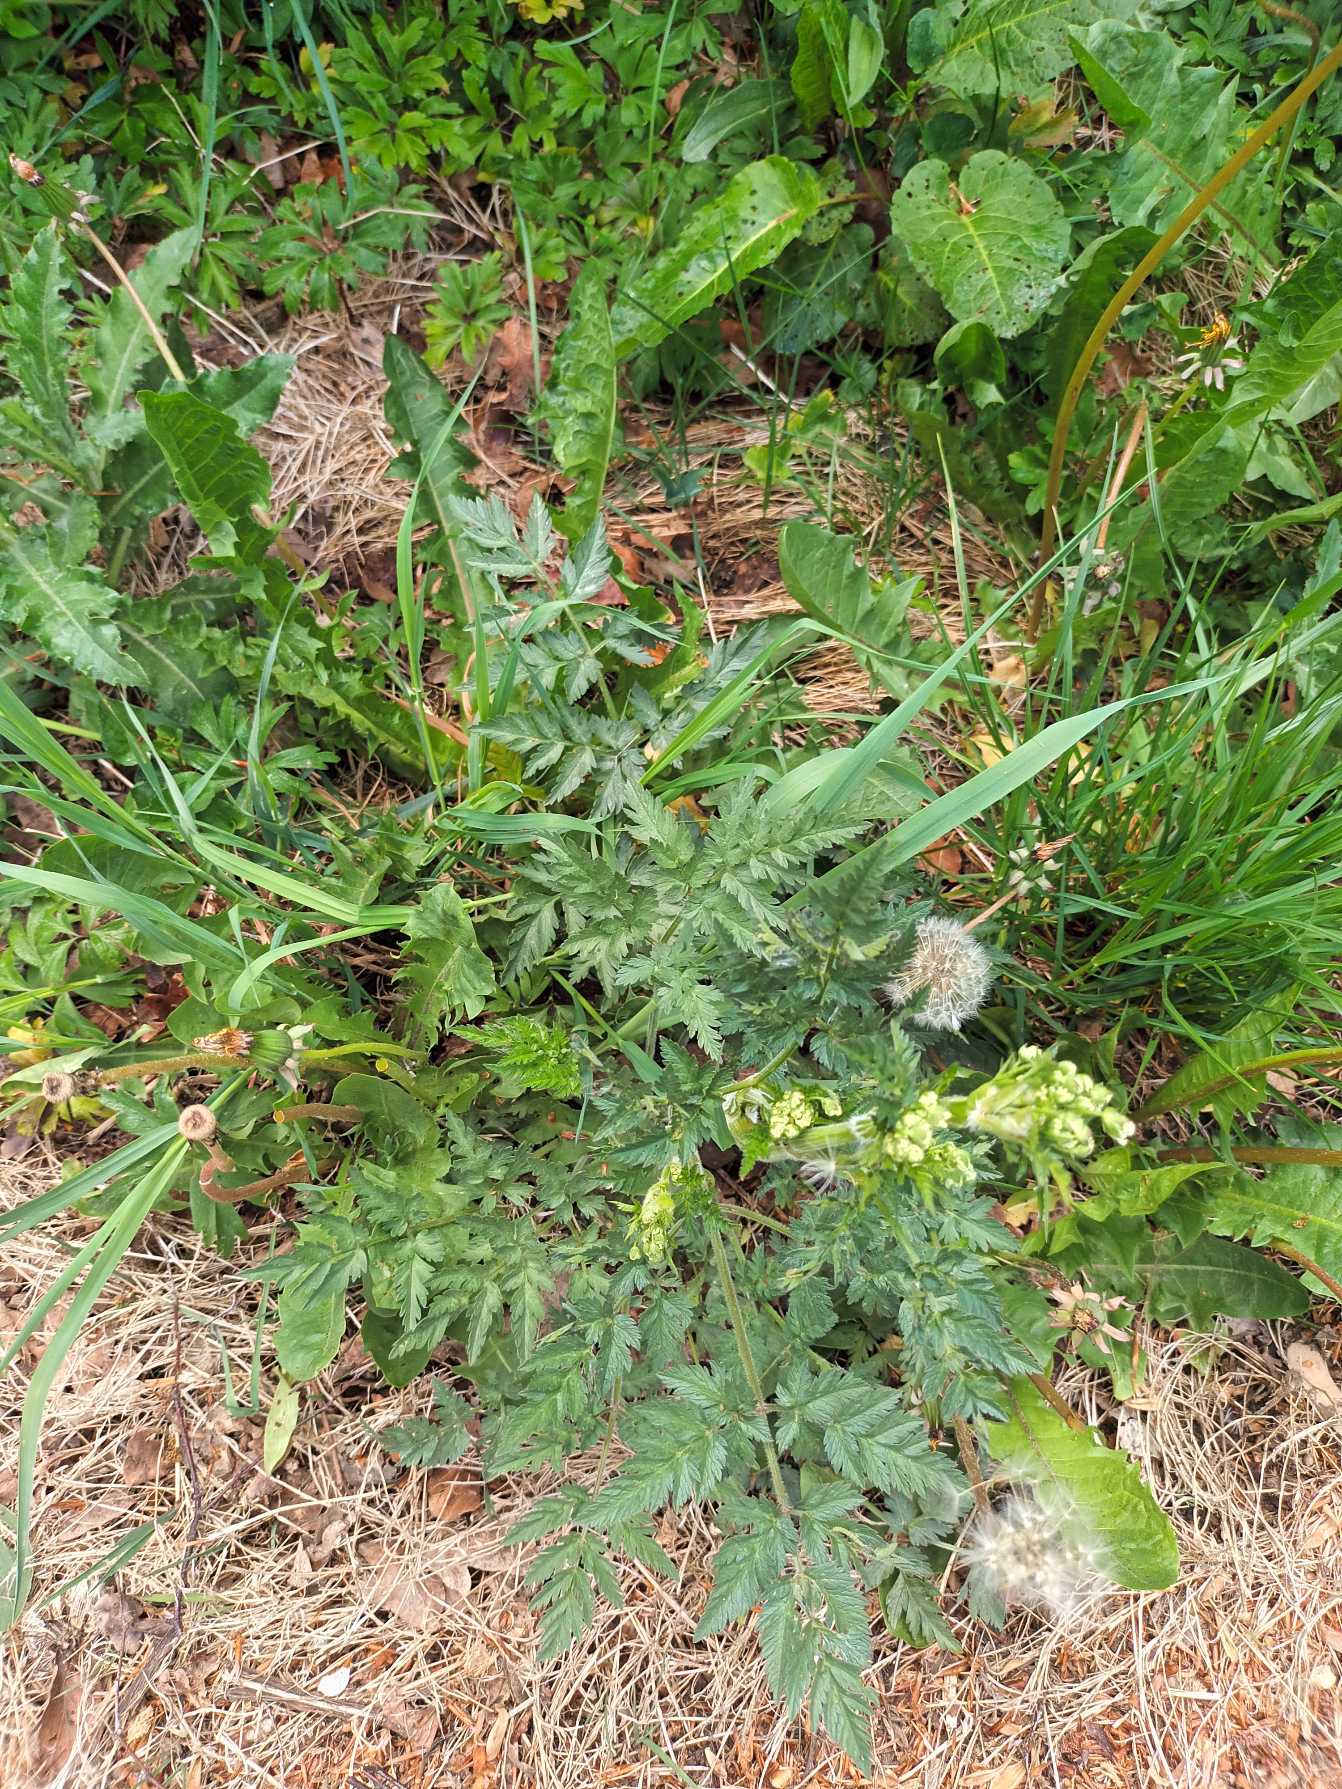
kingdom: Plantae
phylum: Tracheophyta
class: Magnoliopsida
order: Apiales
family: Apiaceae
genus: Anthriscus
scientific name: Anthriscus sylvestris
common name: Vild kørvel
